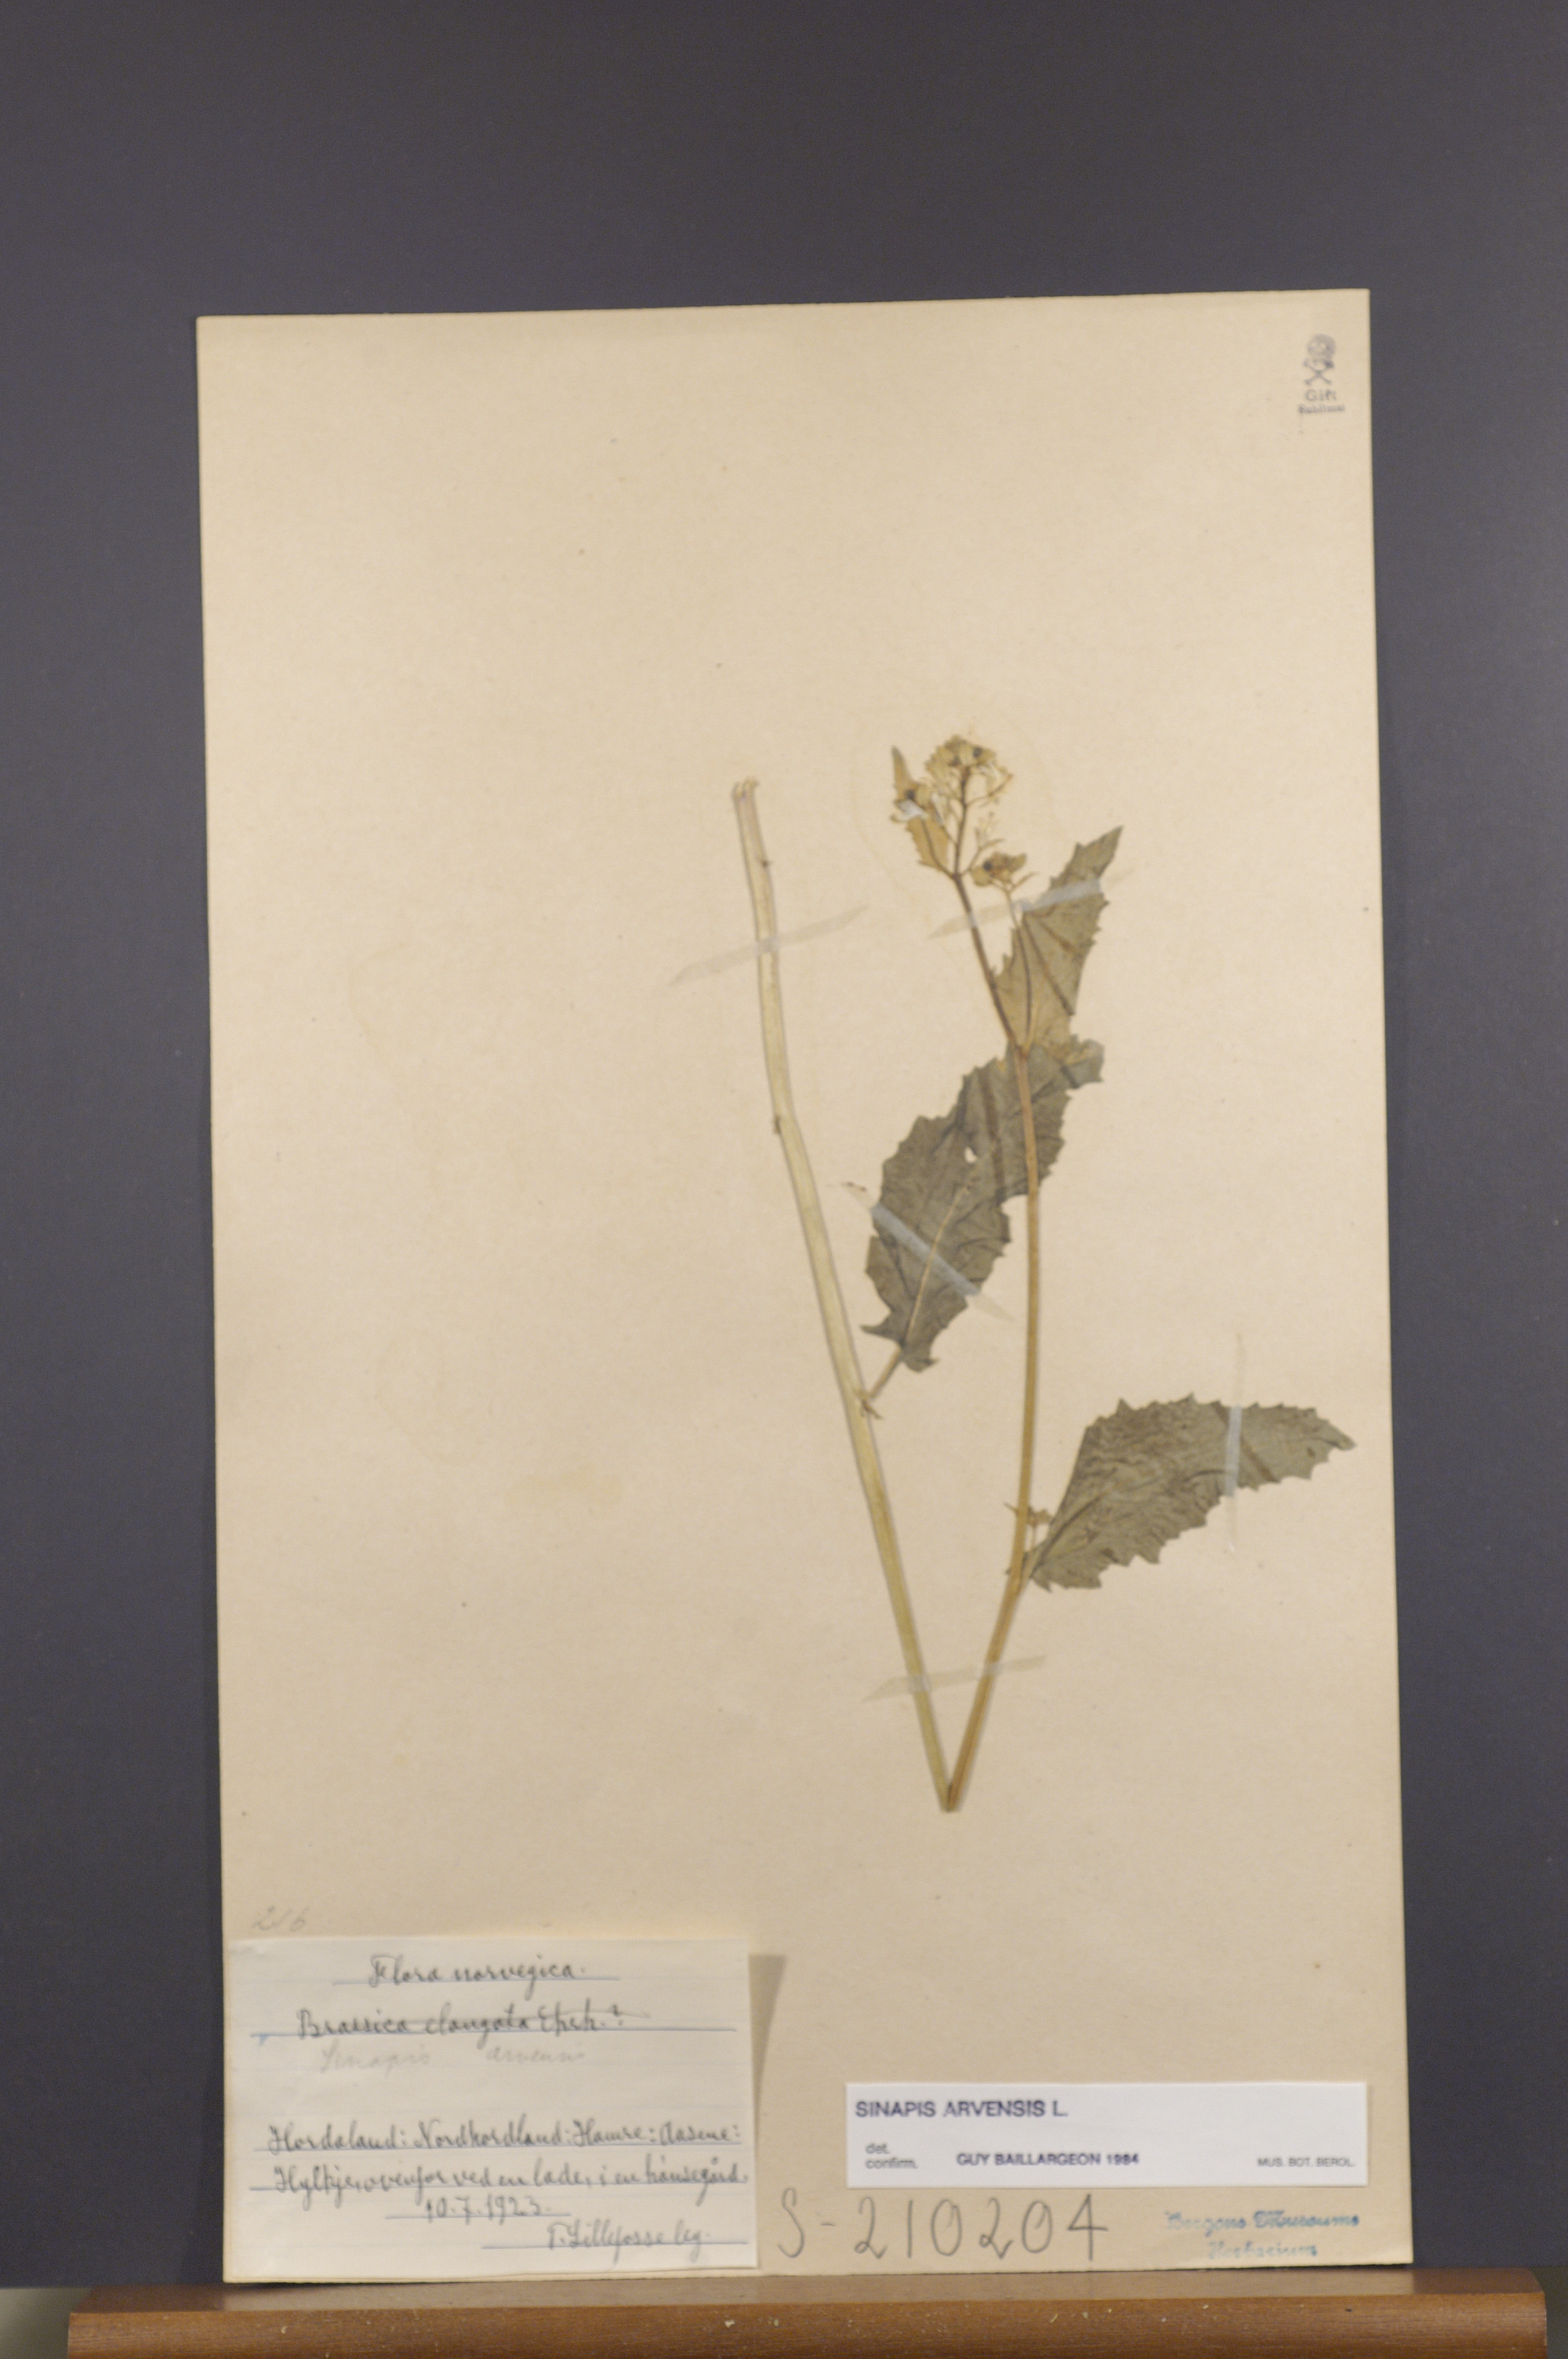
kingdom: Plantae
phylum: Tracheophyta
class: Magnoliopsida
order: Brassicales
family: Brassicaceae
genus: Sinapis
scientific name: Sinapis arvensis
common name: Charlock
